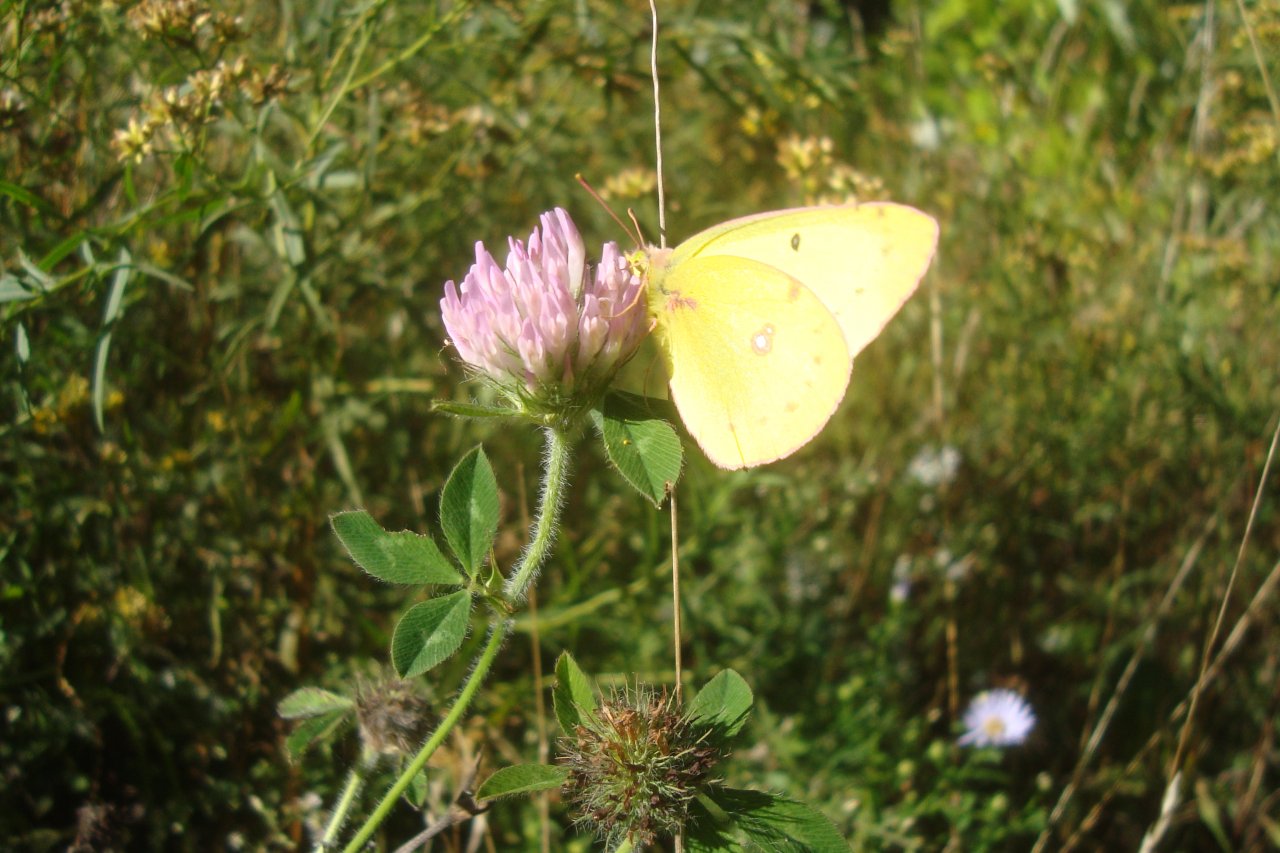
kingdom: Animalia
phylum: Arthropoda
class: Insecta
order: Lepidoptera
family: Pieridae
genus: Colias
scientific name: Colias philodice
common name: Clouded Sulphur
